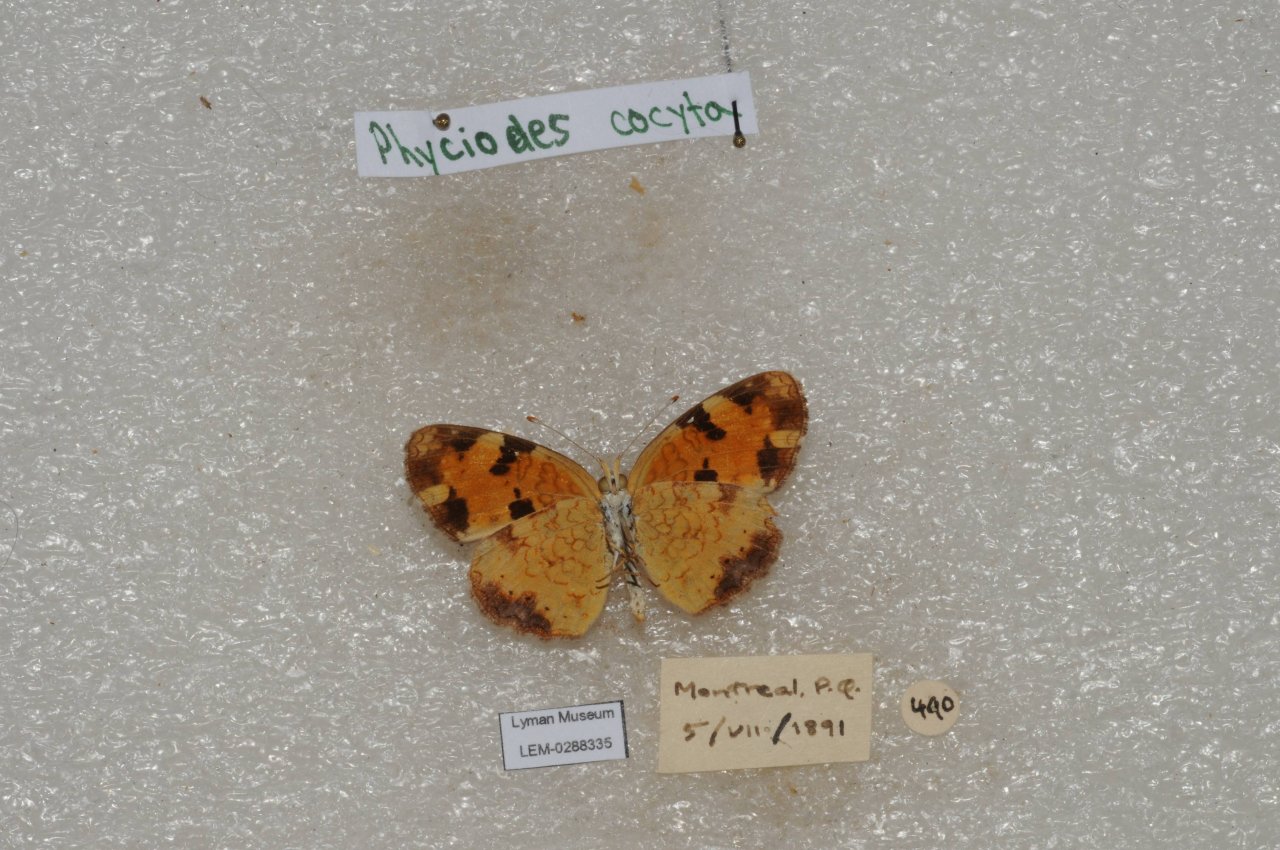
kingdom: Animalia
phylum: Arthropoda
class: Insecta
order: Lepidoptera
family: Nymphalidae
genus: Phyciodes
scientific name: Phyciodes tharos
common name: Northern Crescent
